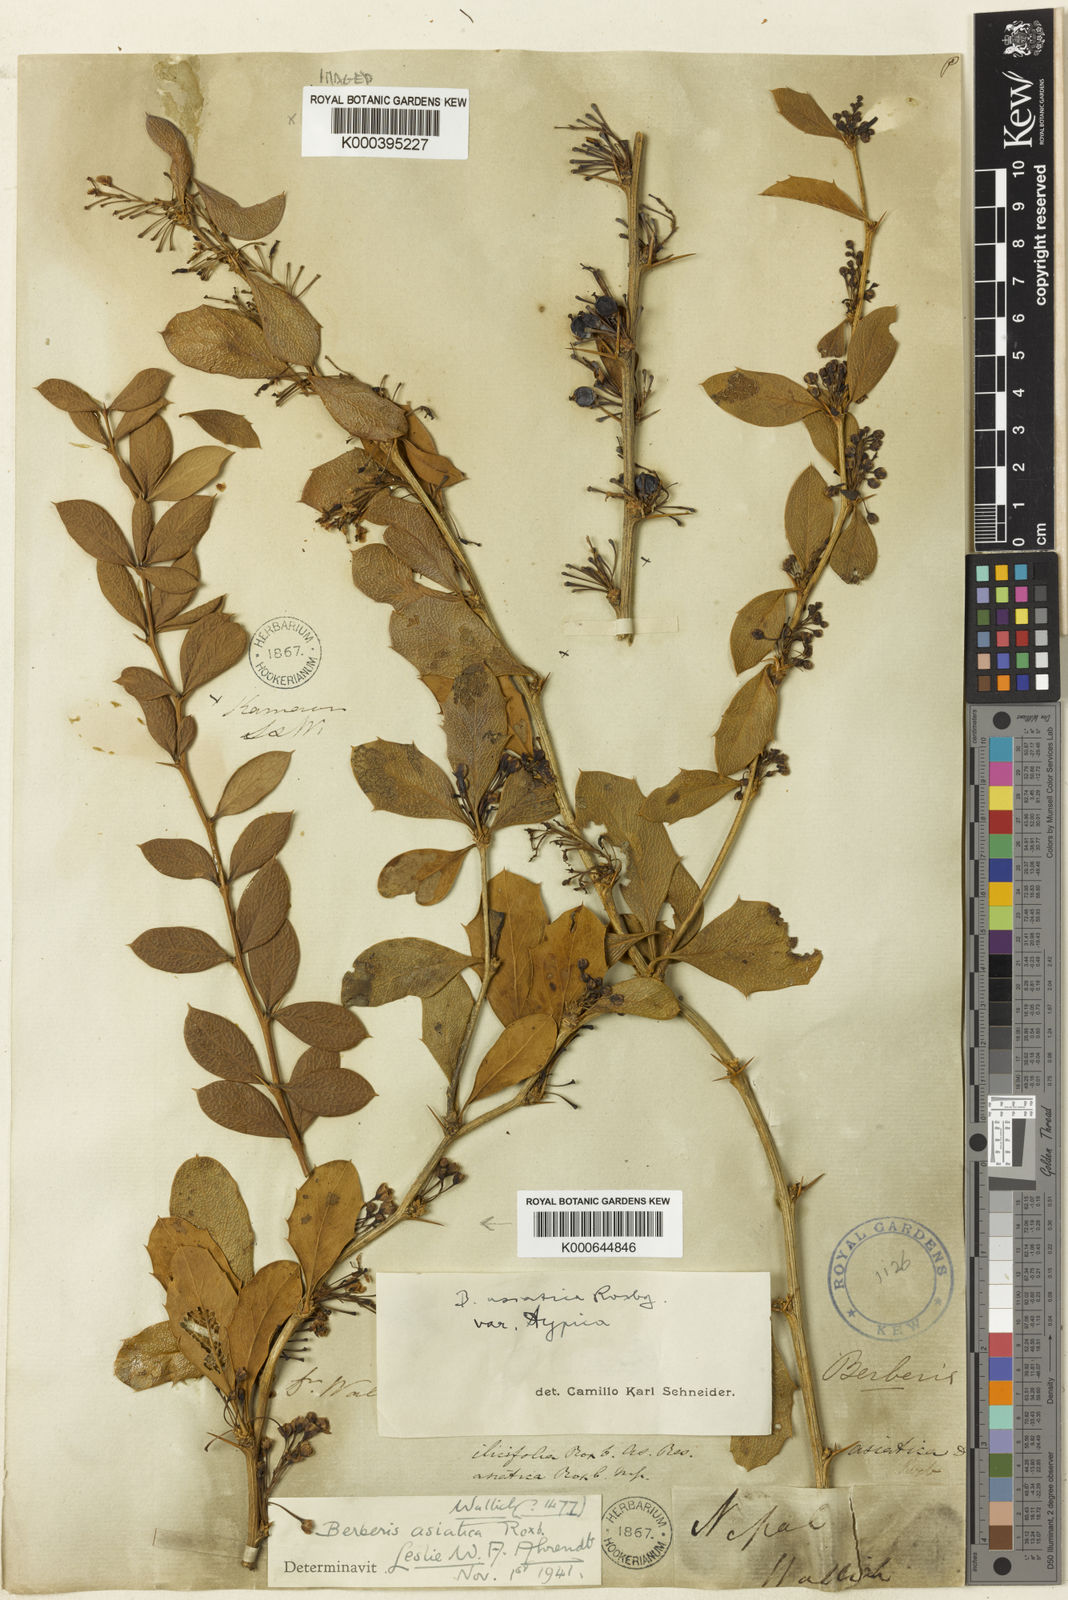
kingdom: Plantae
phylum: Tracheophyta
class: Magnoliopsida
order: Ranunculales
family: Berberidaceae
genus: Berberis
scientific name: Berberis asiatica
